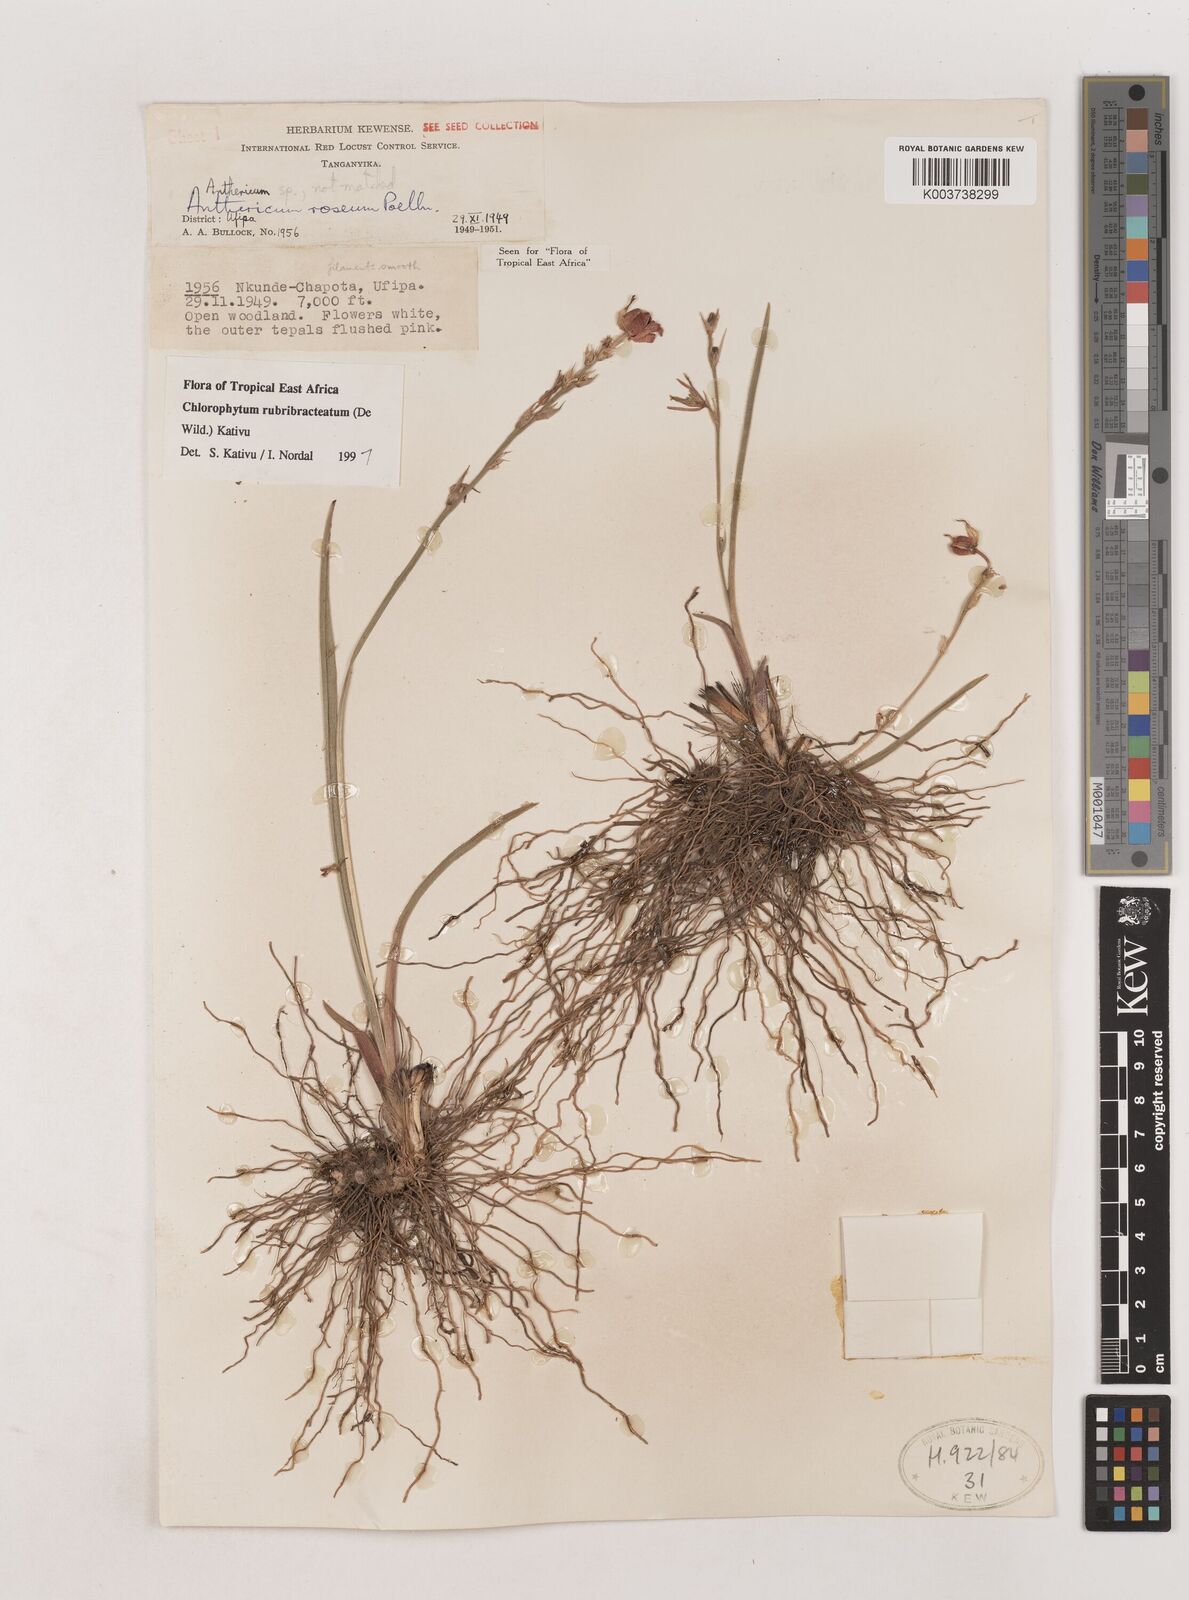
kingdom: Plantae
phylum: Tracheophyta
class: Liliopsida
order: Asparagales
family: Asparagaceae
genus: Chlorophytum
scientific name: Chlorophytum rubribracteatum
